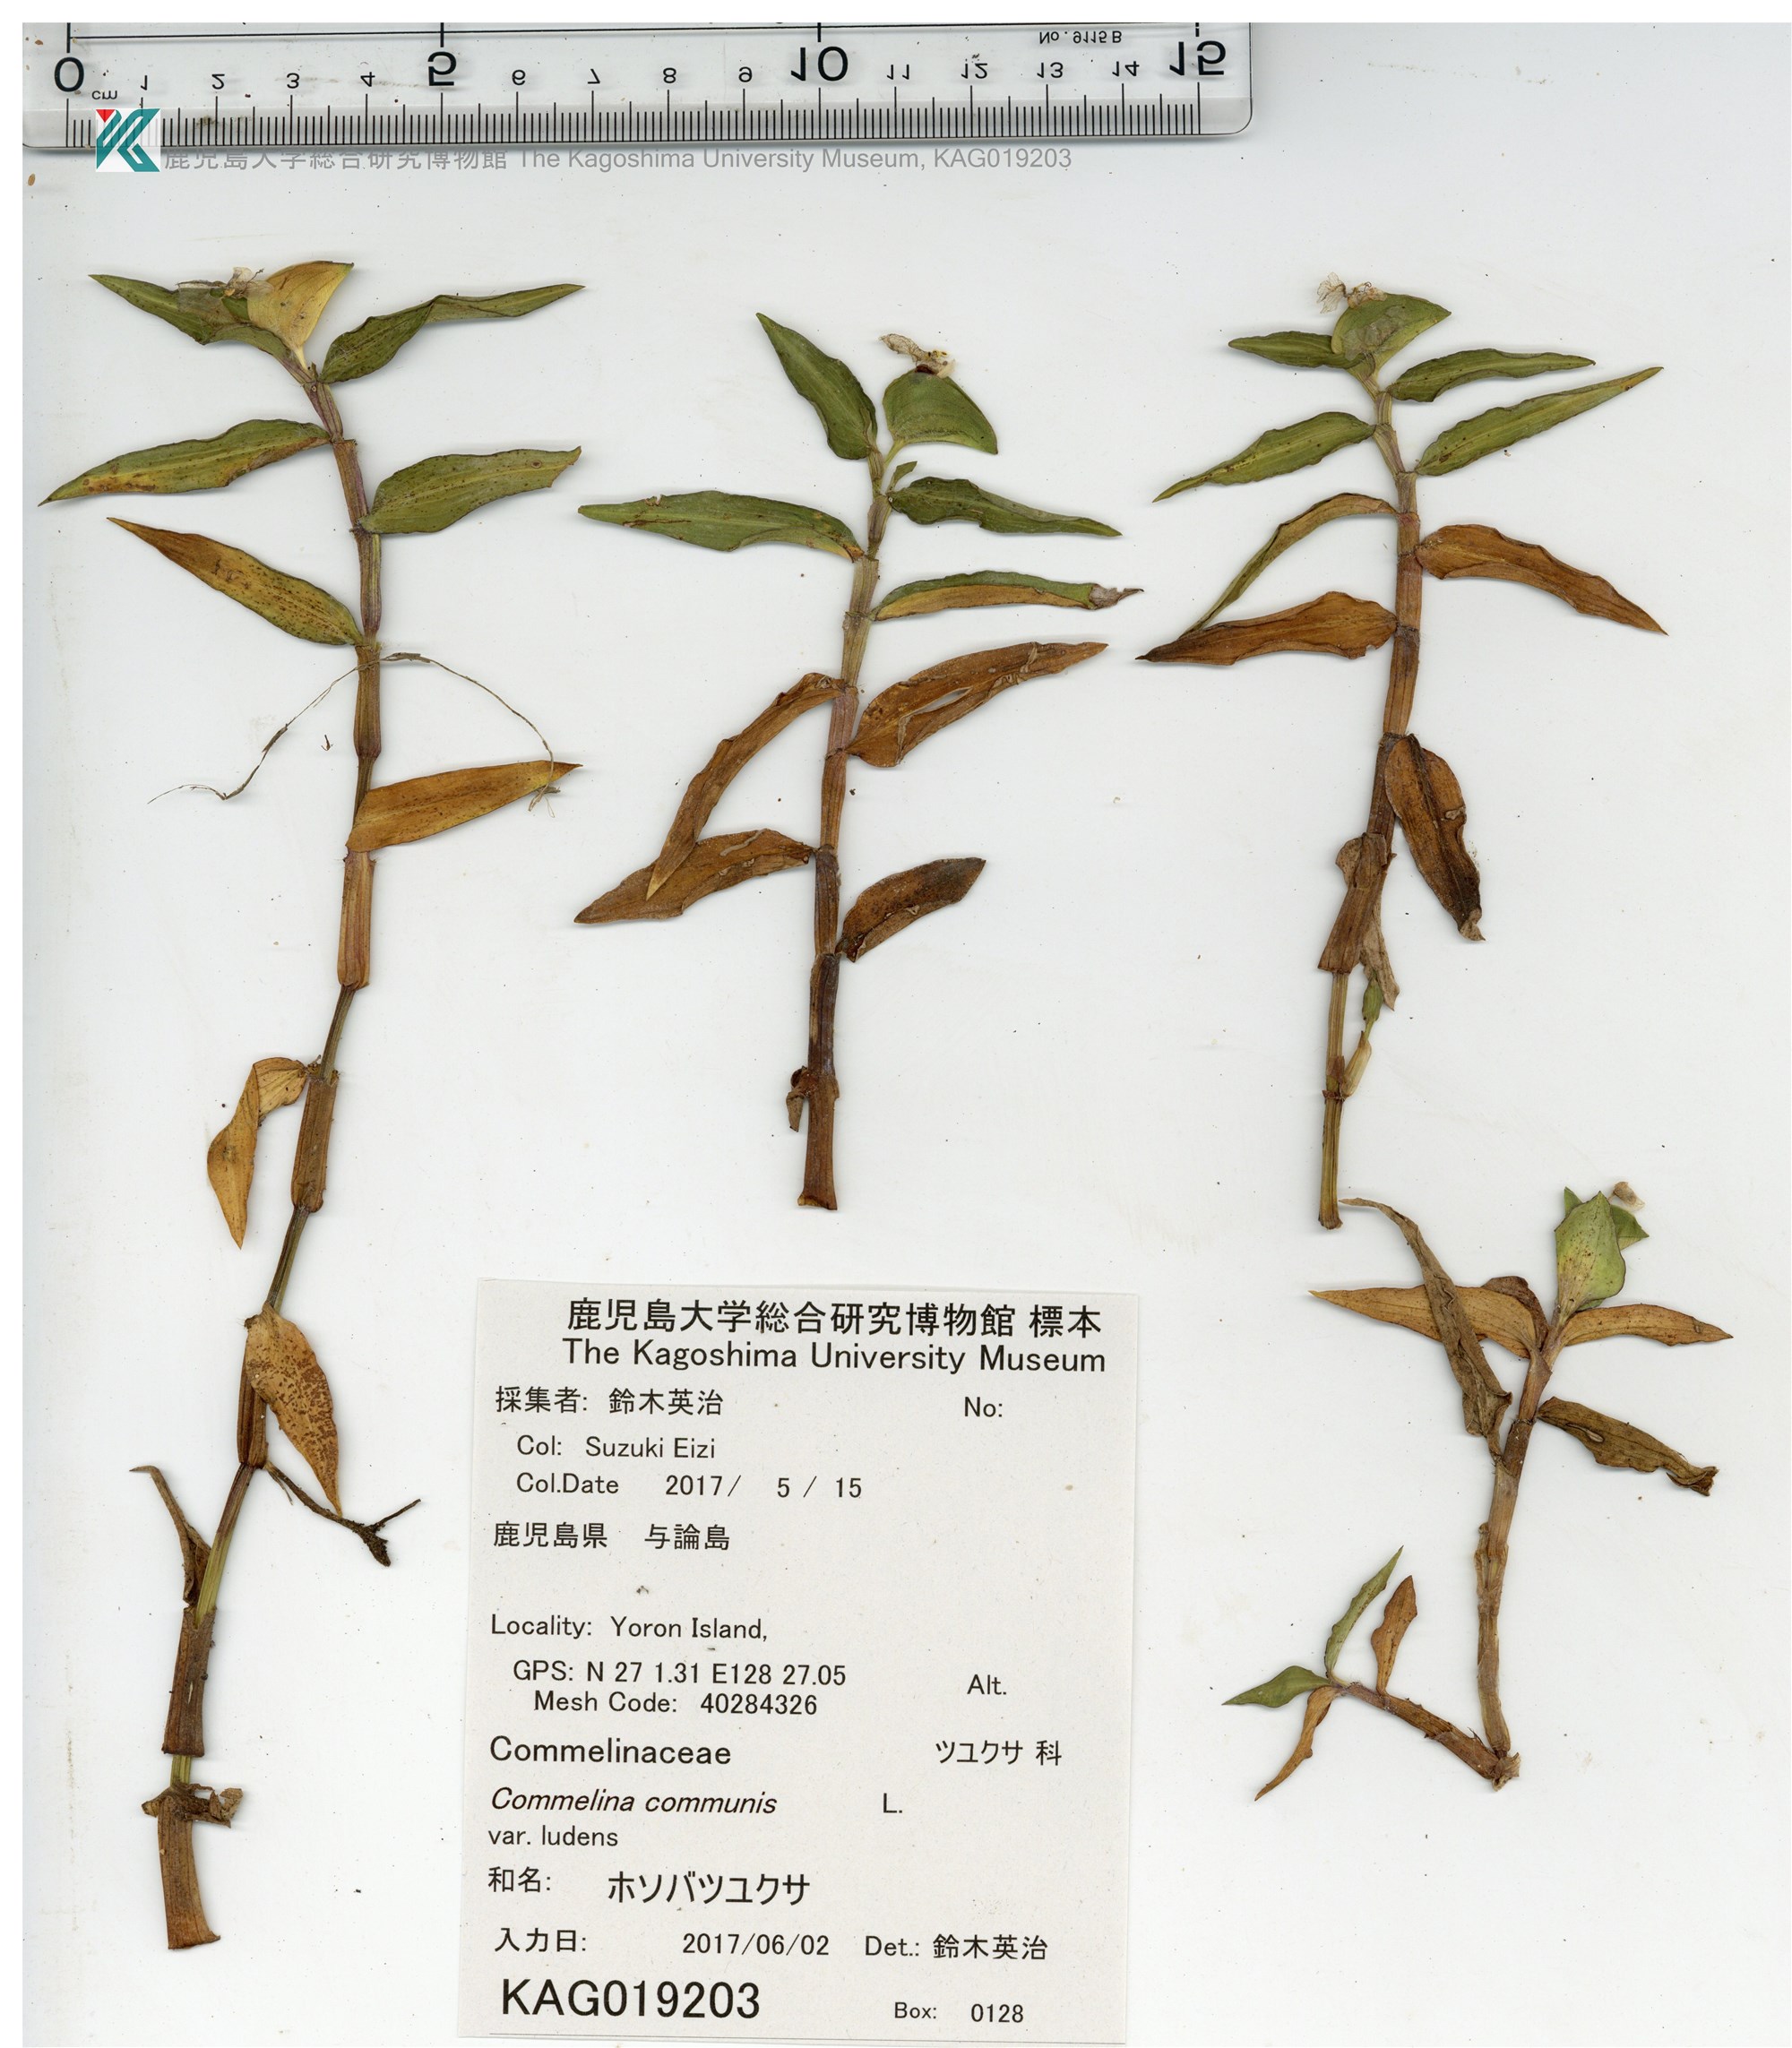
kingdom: Plantae
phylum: Tracheophyta
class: Liliopsida
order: Commelinales
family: Commelinaceae
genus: Commelina
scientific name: Commelina communis
